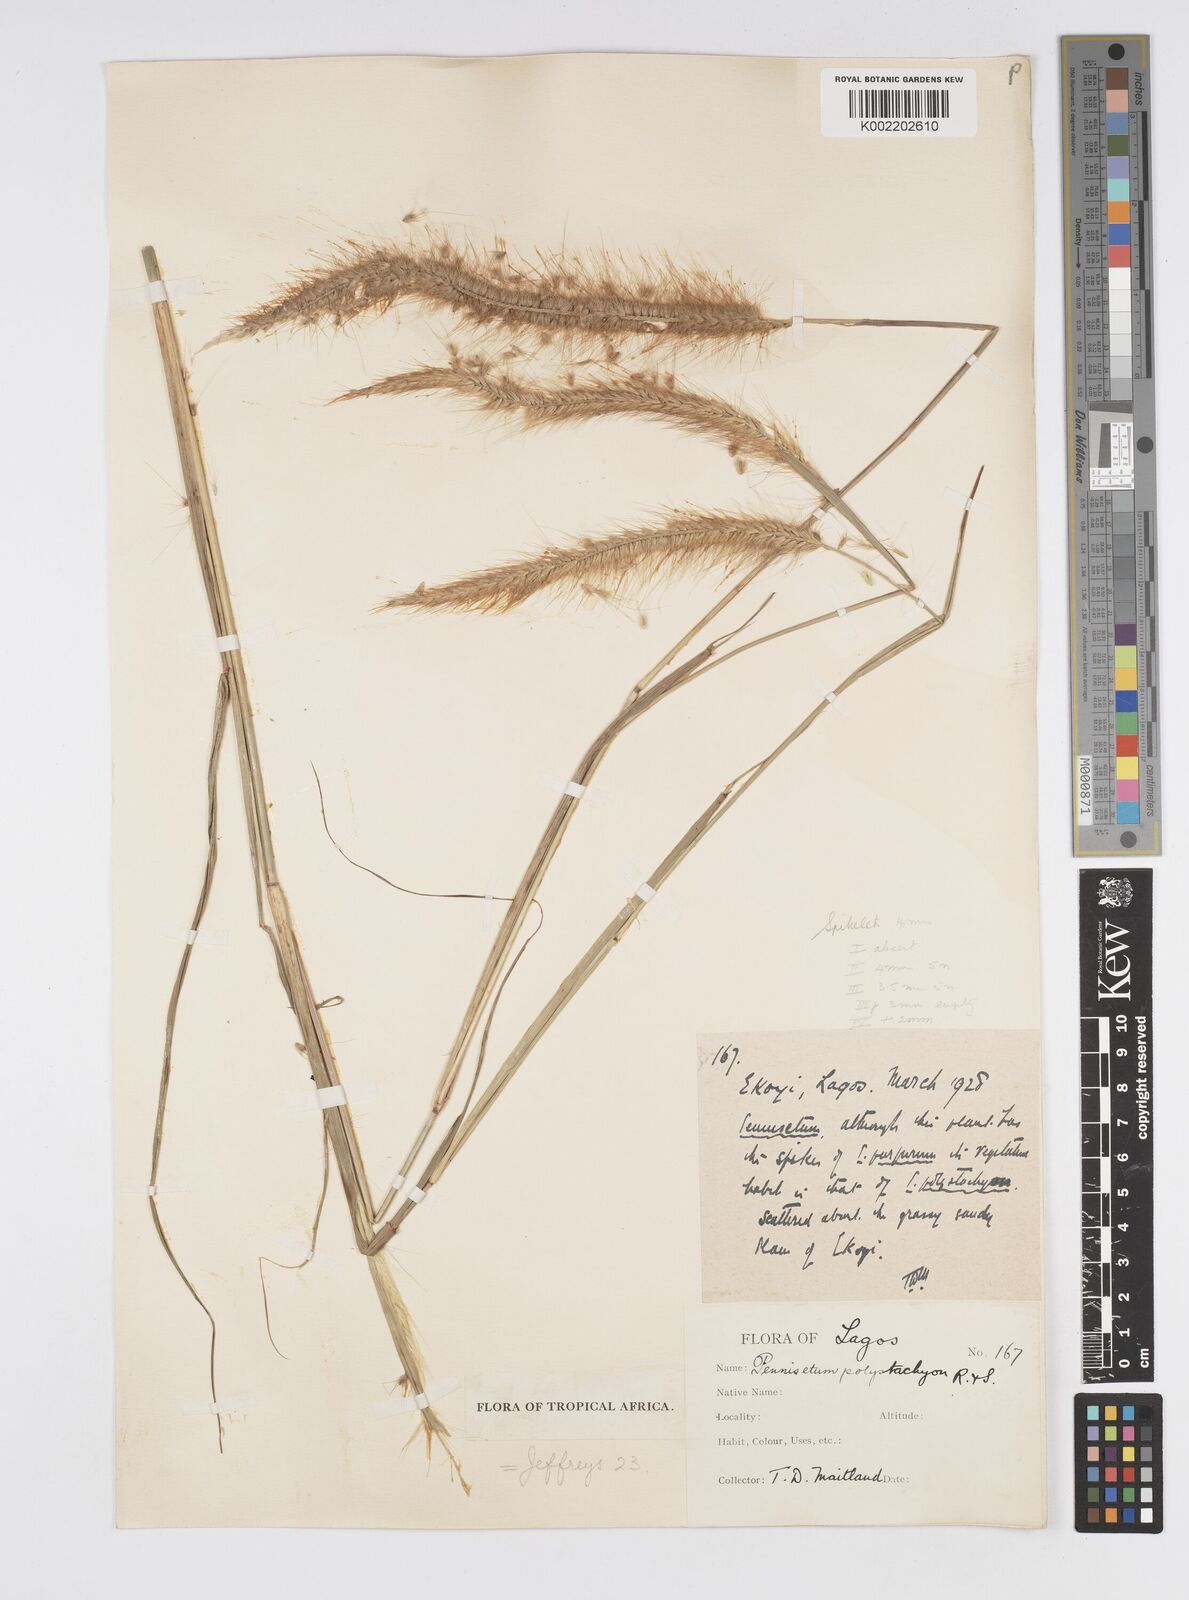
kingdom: Plantae
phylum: Tracheophyta
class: Liliopsida
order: Poales
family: Poaceae
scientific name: Poaceae
